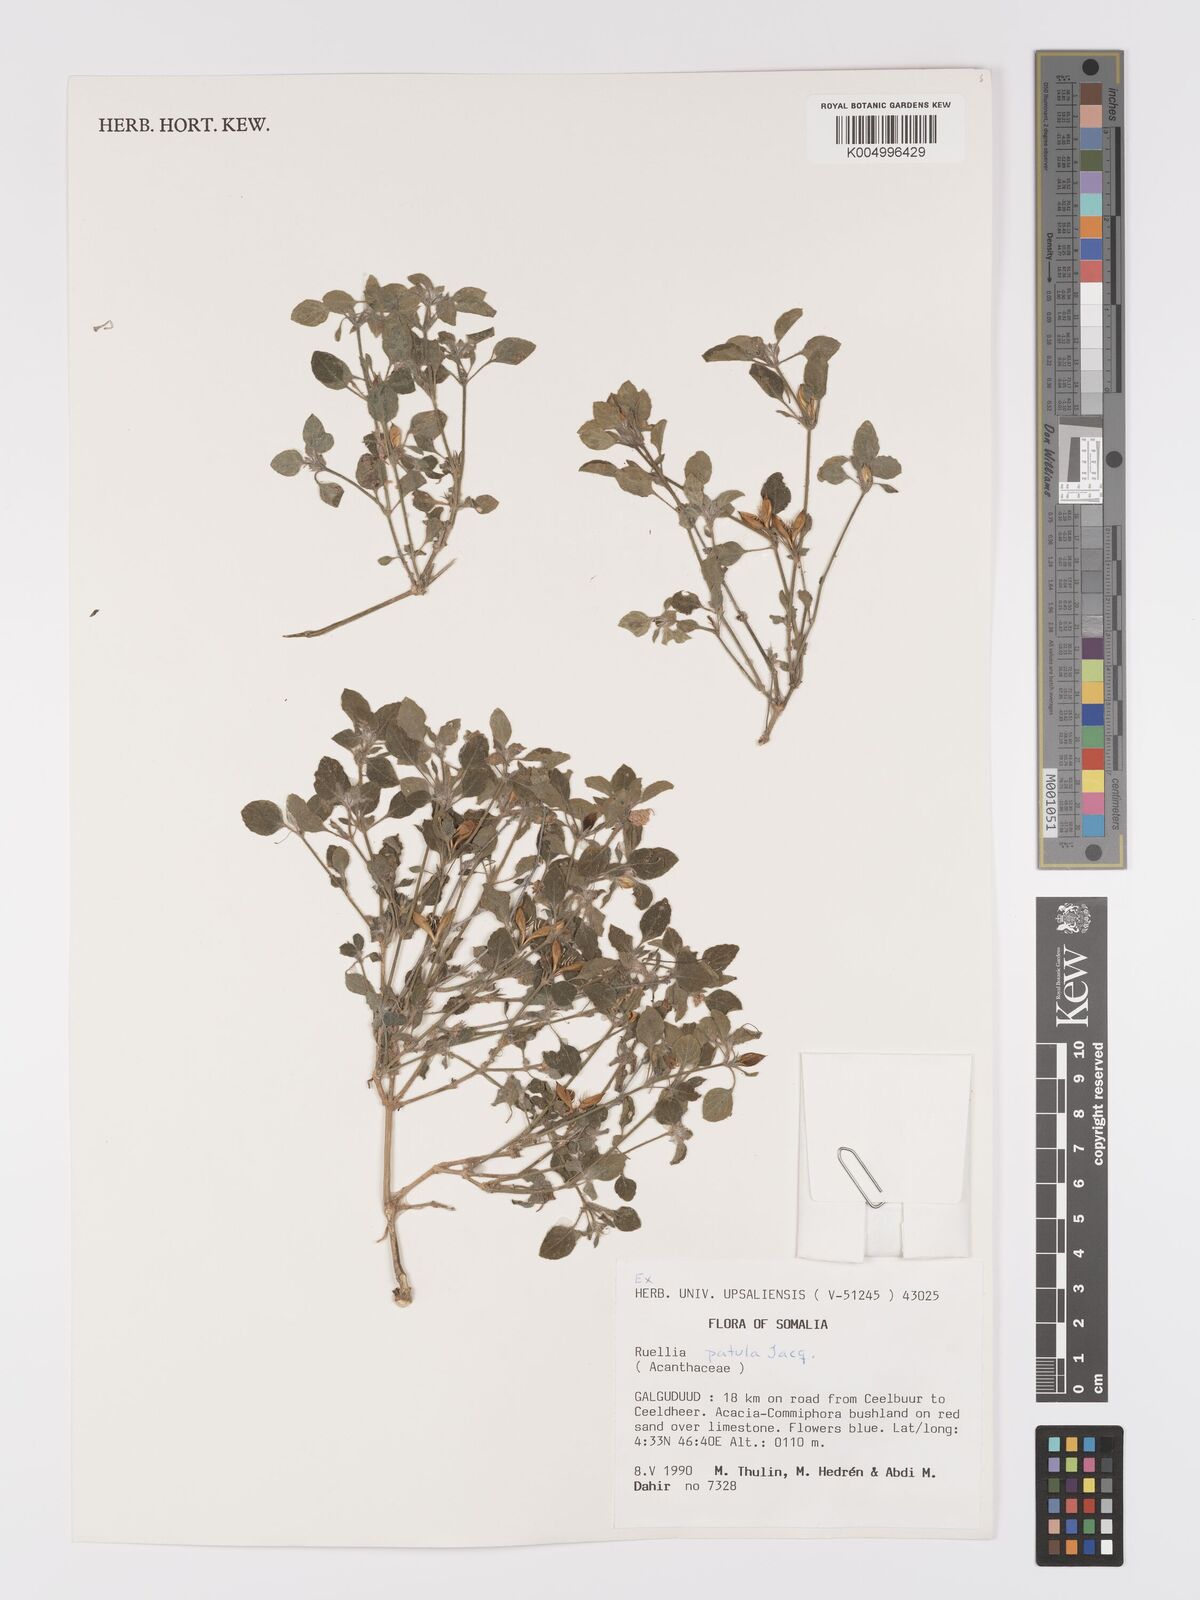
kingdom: Plantae
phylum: Tracheophyta
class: Magnoliopsida
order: Lamiales
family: Acanthaceae
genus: Ruellia
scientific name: Ruellia patula
